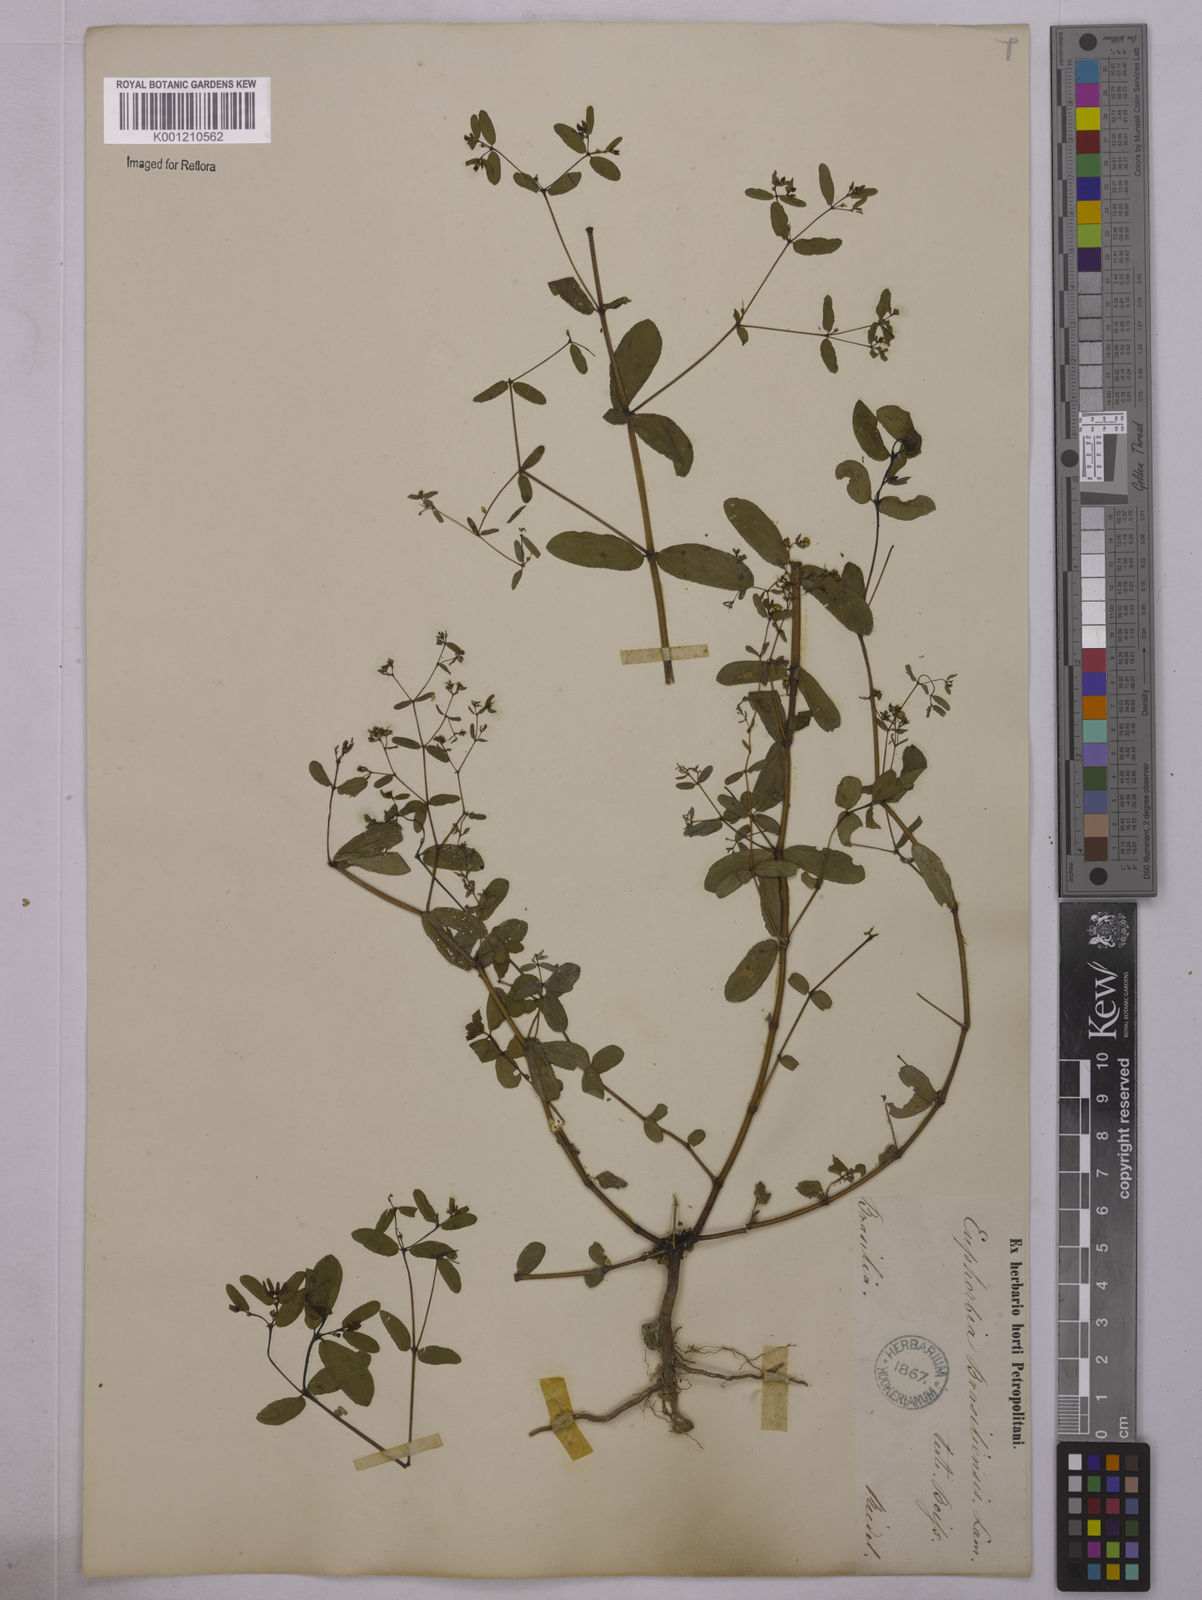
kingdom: Plantae
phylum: Tracheophyta
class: Magnoliopsida
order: Malpighiales
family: Euphorbiaceae
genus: Euphorbia
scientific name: Euphorbia hyssopifolia
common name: Hyssopleaf sandmat
